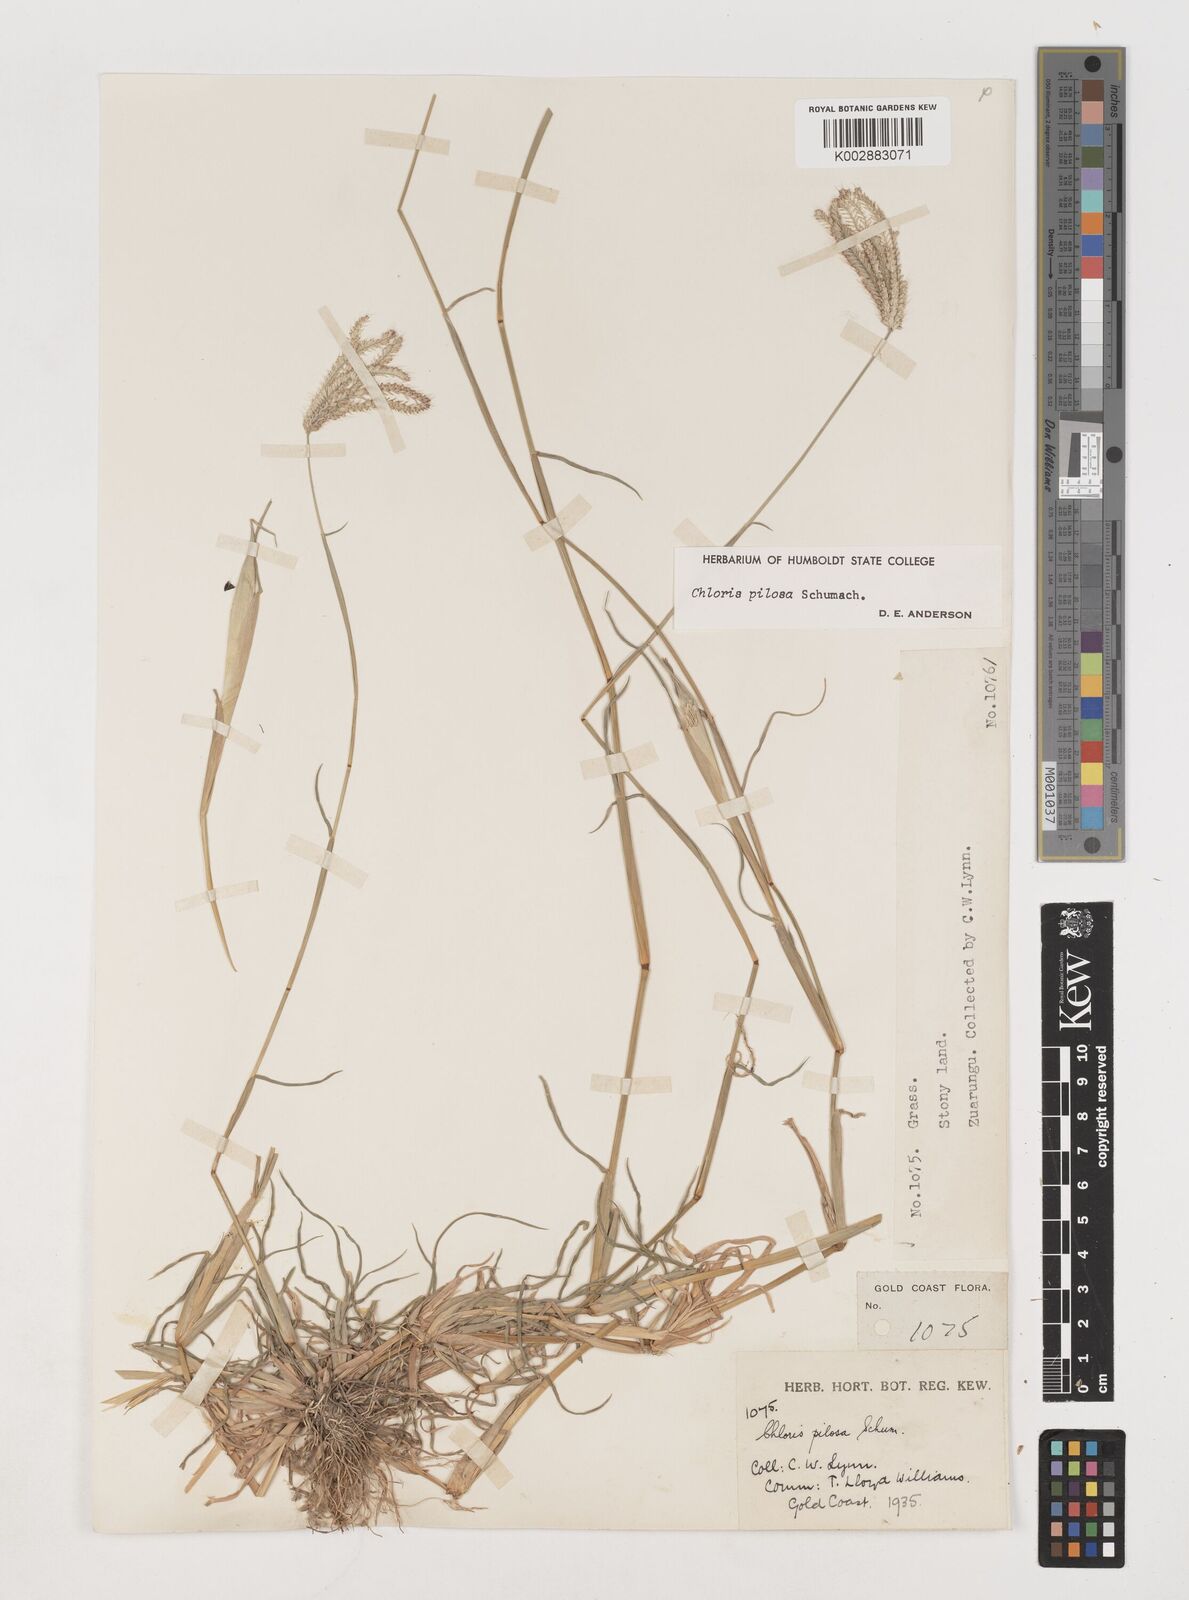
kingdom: Plantae
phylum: Tracheophyta
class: Liliopsida
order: Poales
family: Poaceae
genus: Chloris
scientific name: Chloris pilosa
